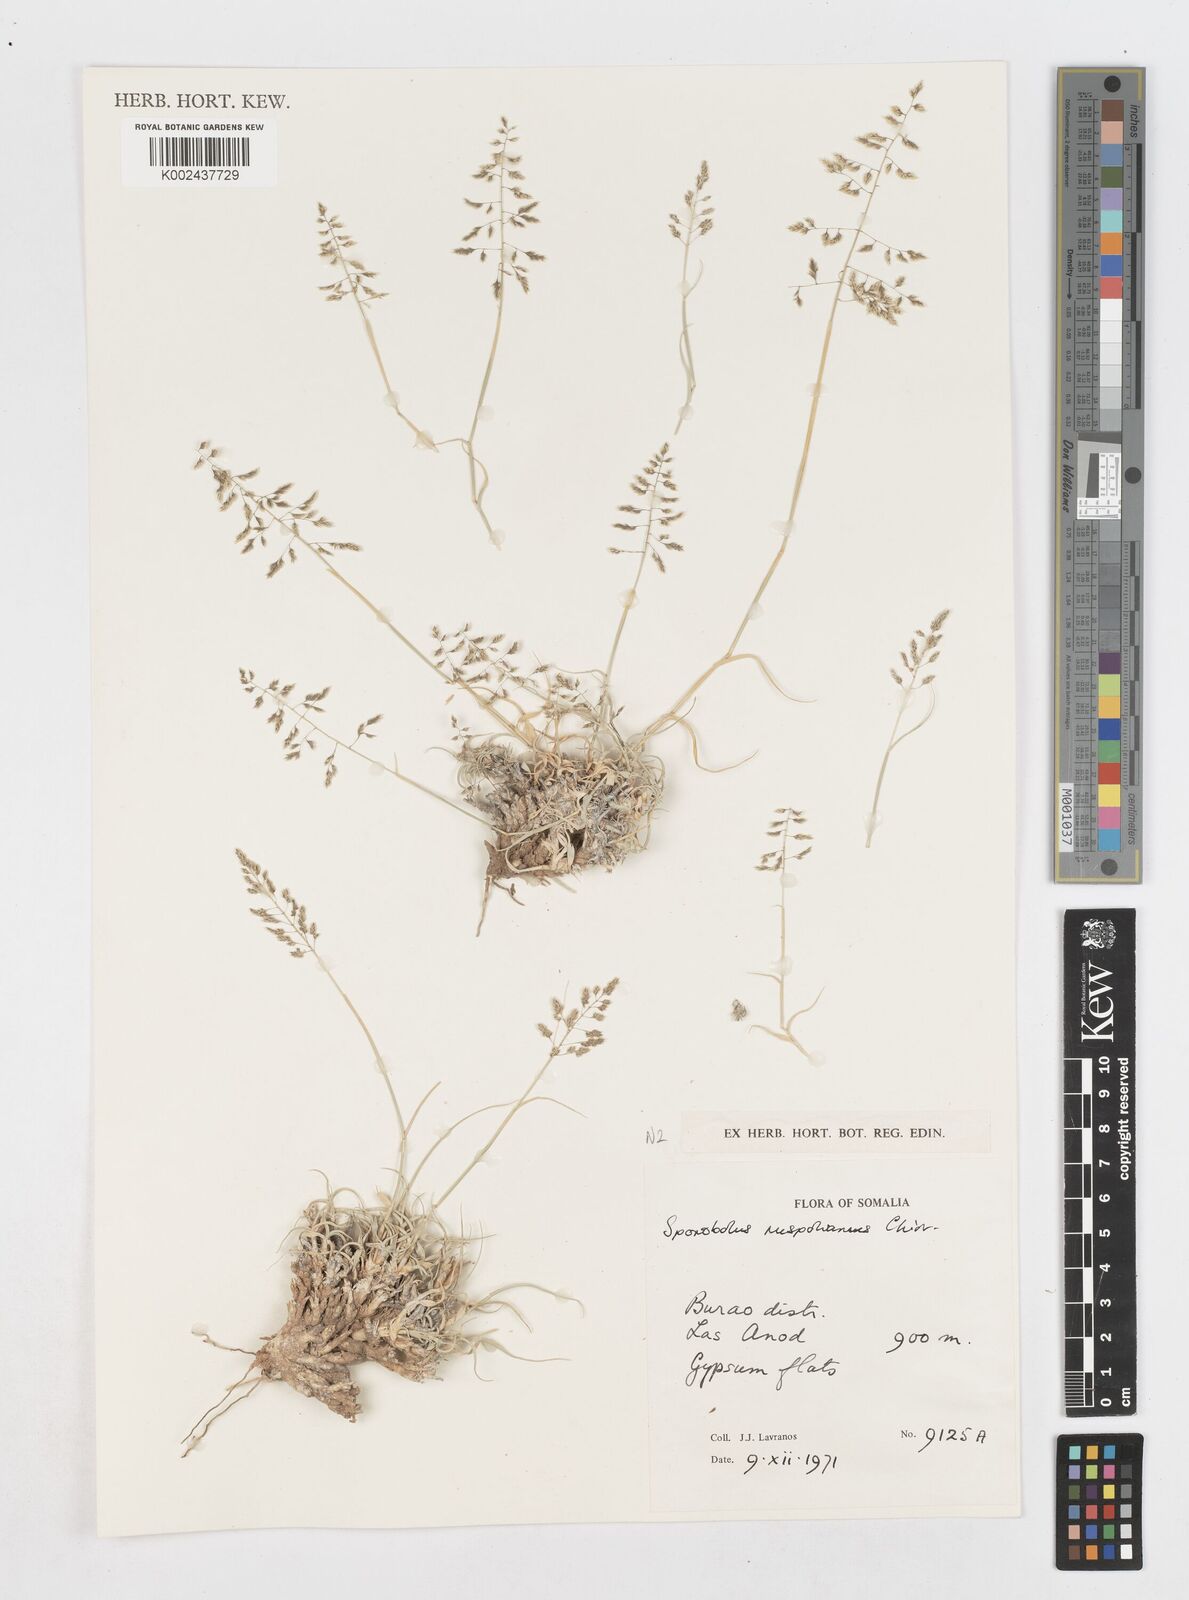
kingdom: Plantae
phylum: Tracheophyta
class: Liliopsida
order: Poales
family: Poaceae
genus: Sporobolus
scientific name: Sporobolus tourneuxii
